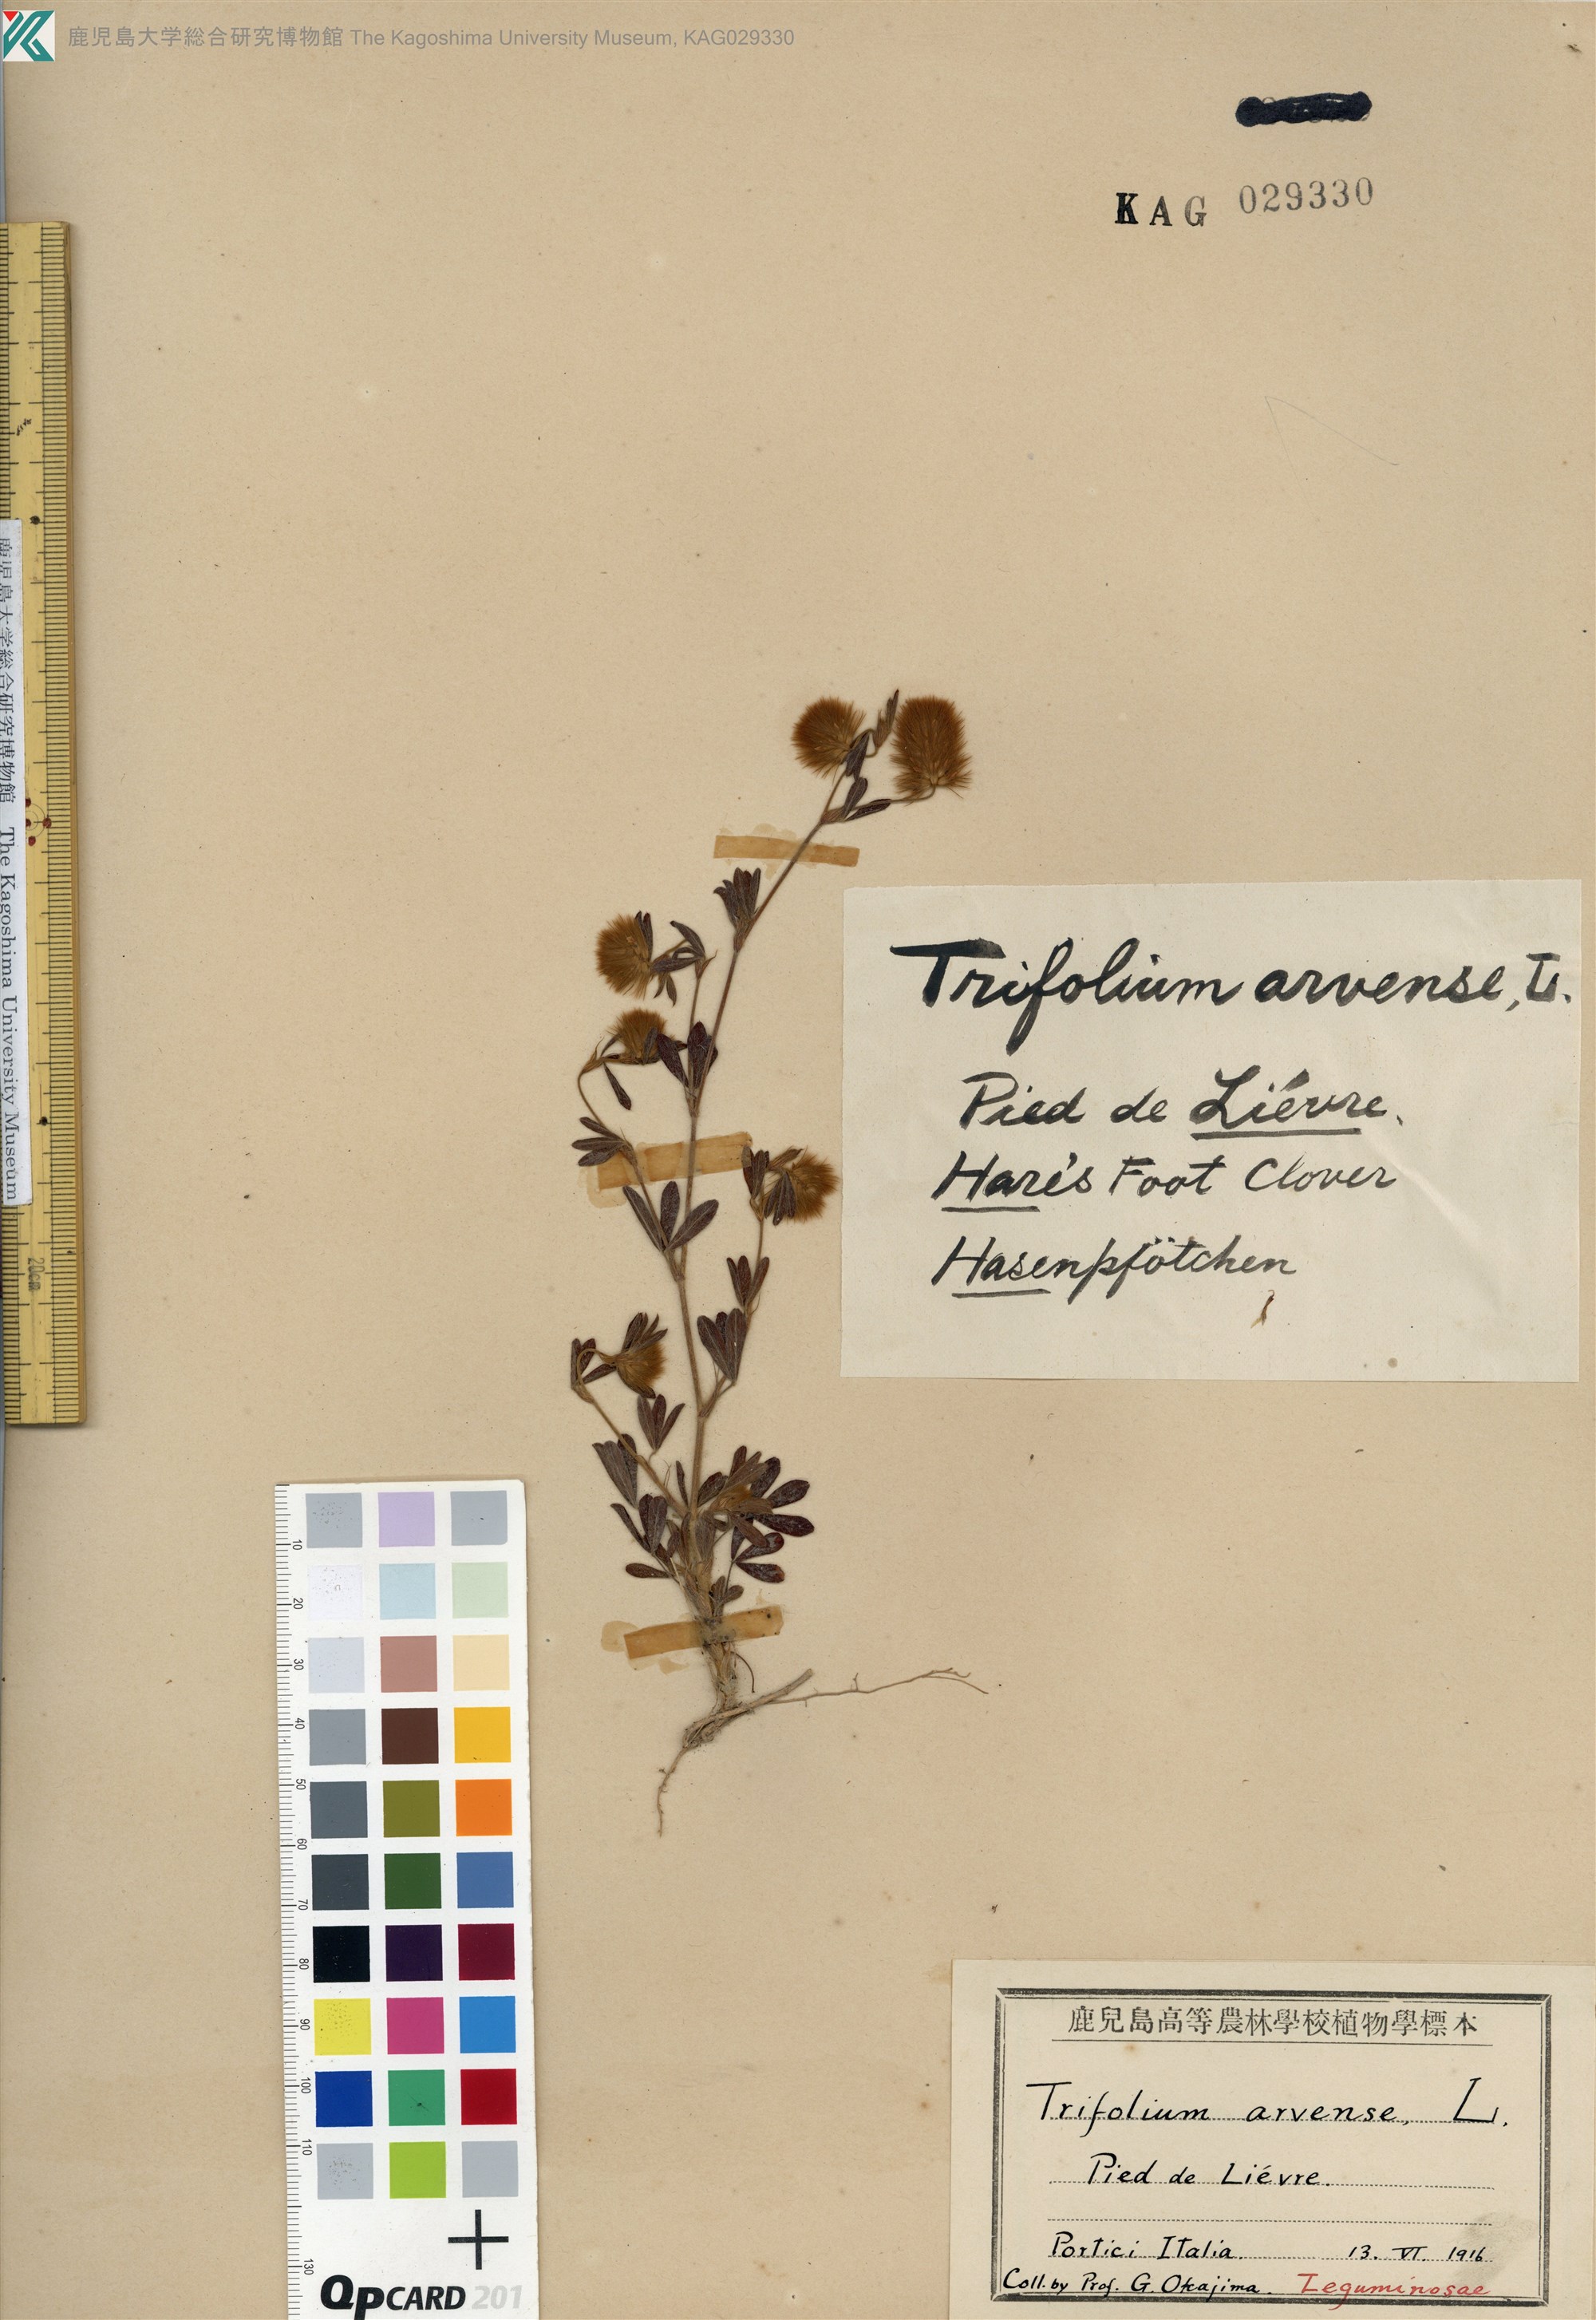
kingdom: Plantae
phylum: Tracheophyta
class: Magnoliopsida
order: Fabales
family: Fabaceae
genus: Trifolium
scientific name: Trifolium arvense
